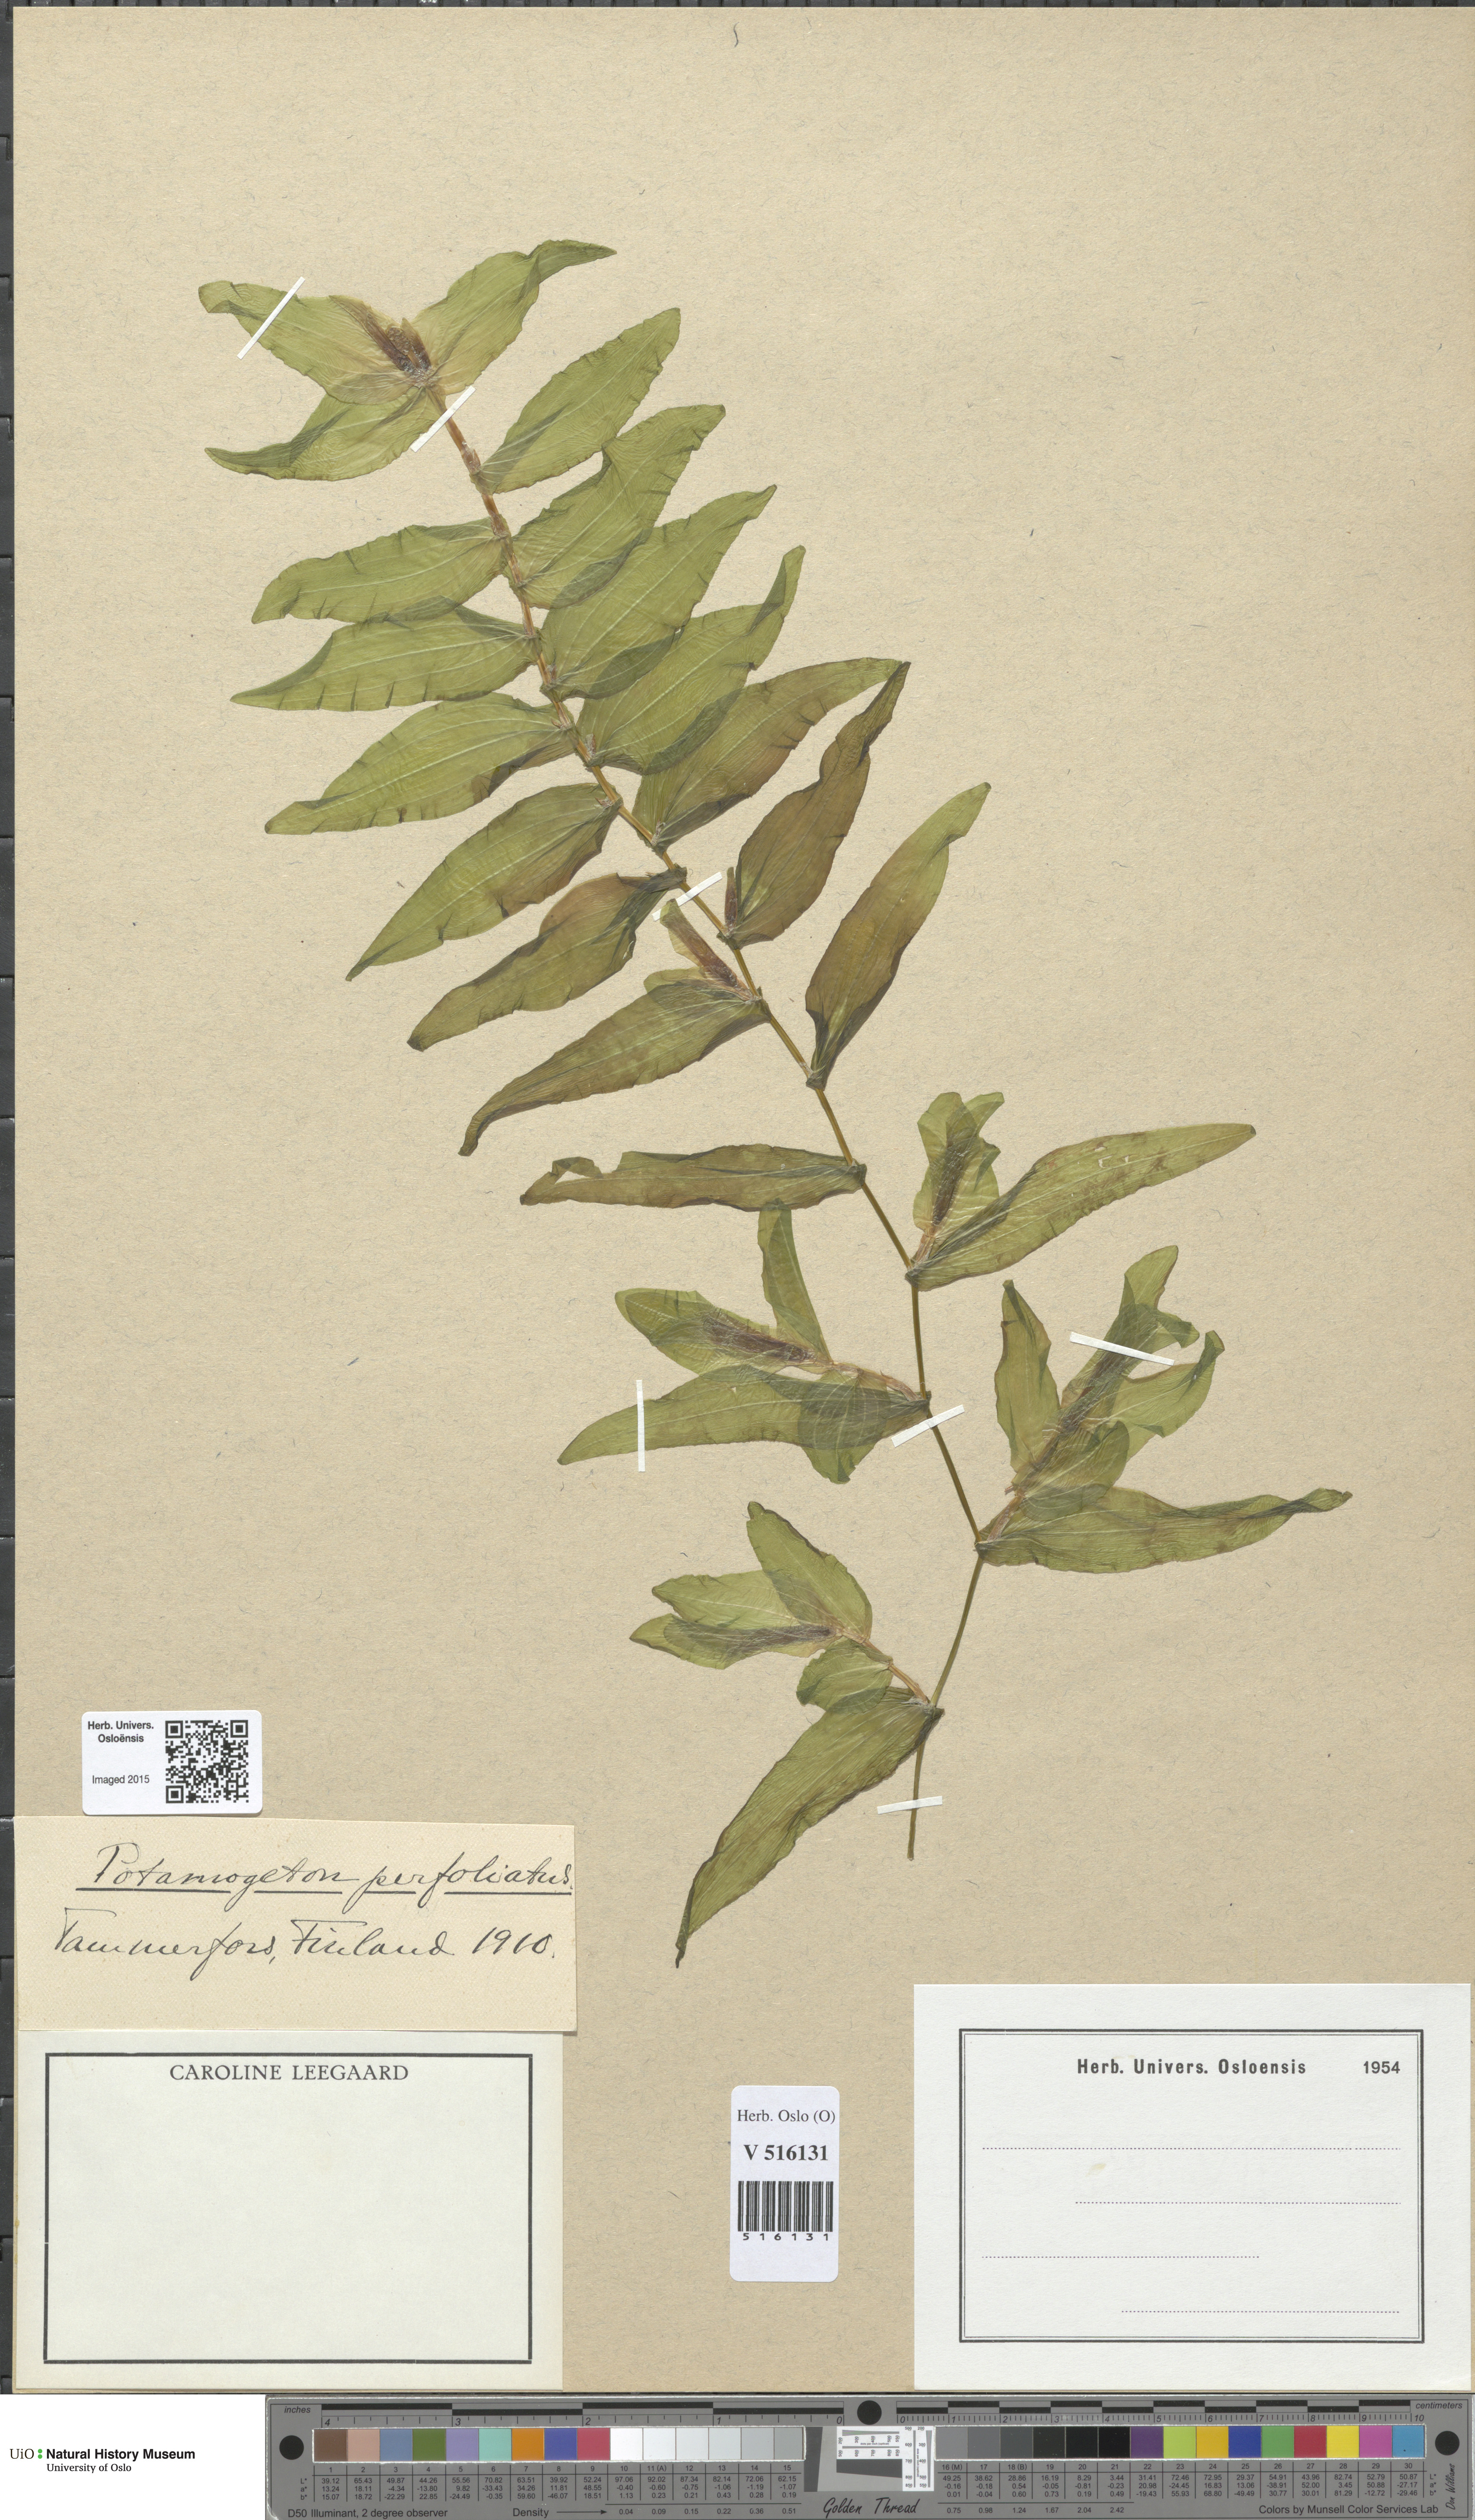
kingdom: Plantae
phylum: Tracheophyta
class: Liliopsida
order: Alismatales
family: Potamogetonaceae
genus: Potamogeton
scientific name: Potamogeton perfoliatus
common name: Perfoliate pondweed
